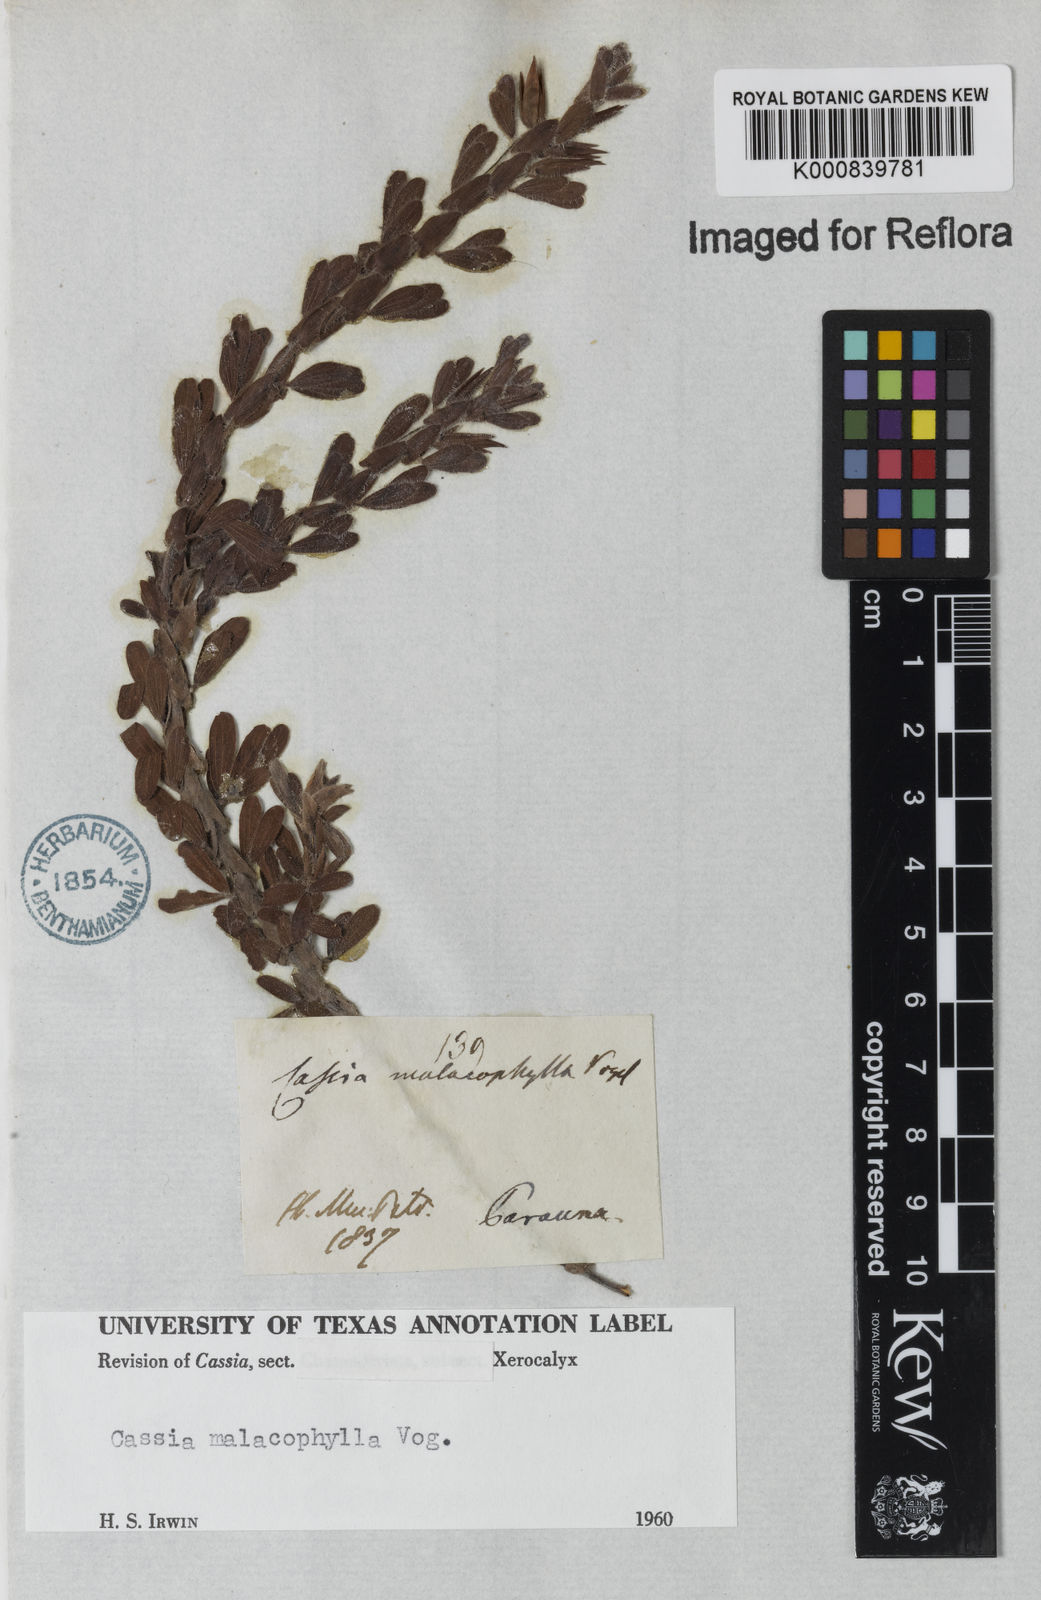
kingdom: Plantae
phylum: Tracheophyta
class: Magnoliopsida
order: Fabales
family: Fabaceae
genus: Chamaecrista
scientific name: Chamaecrista desvauxii
